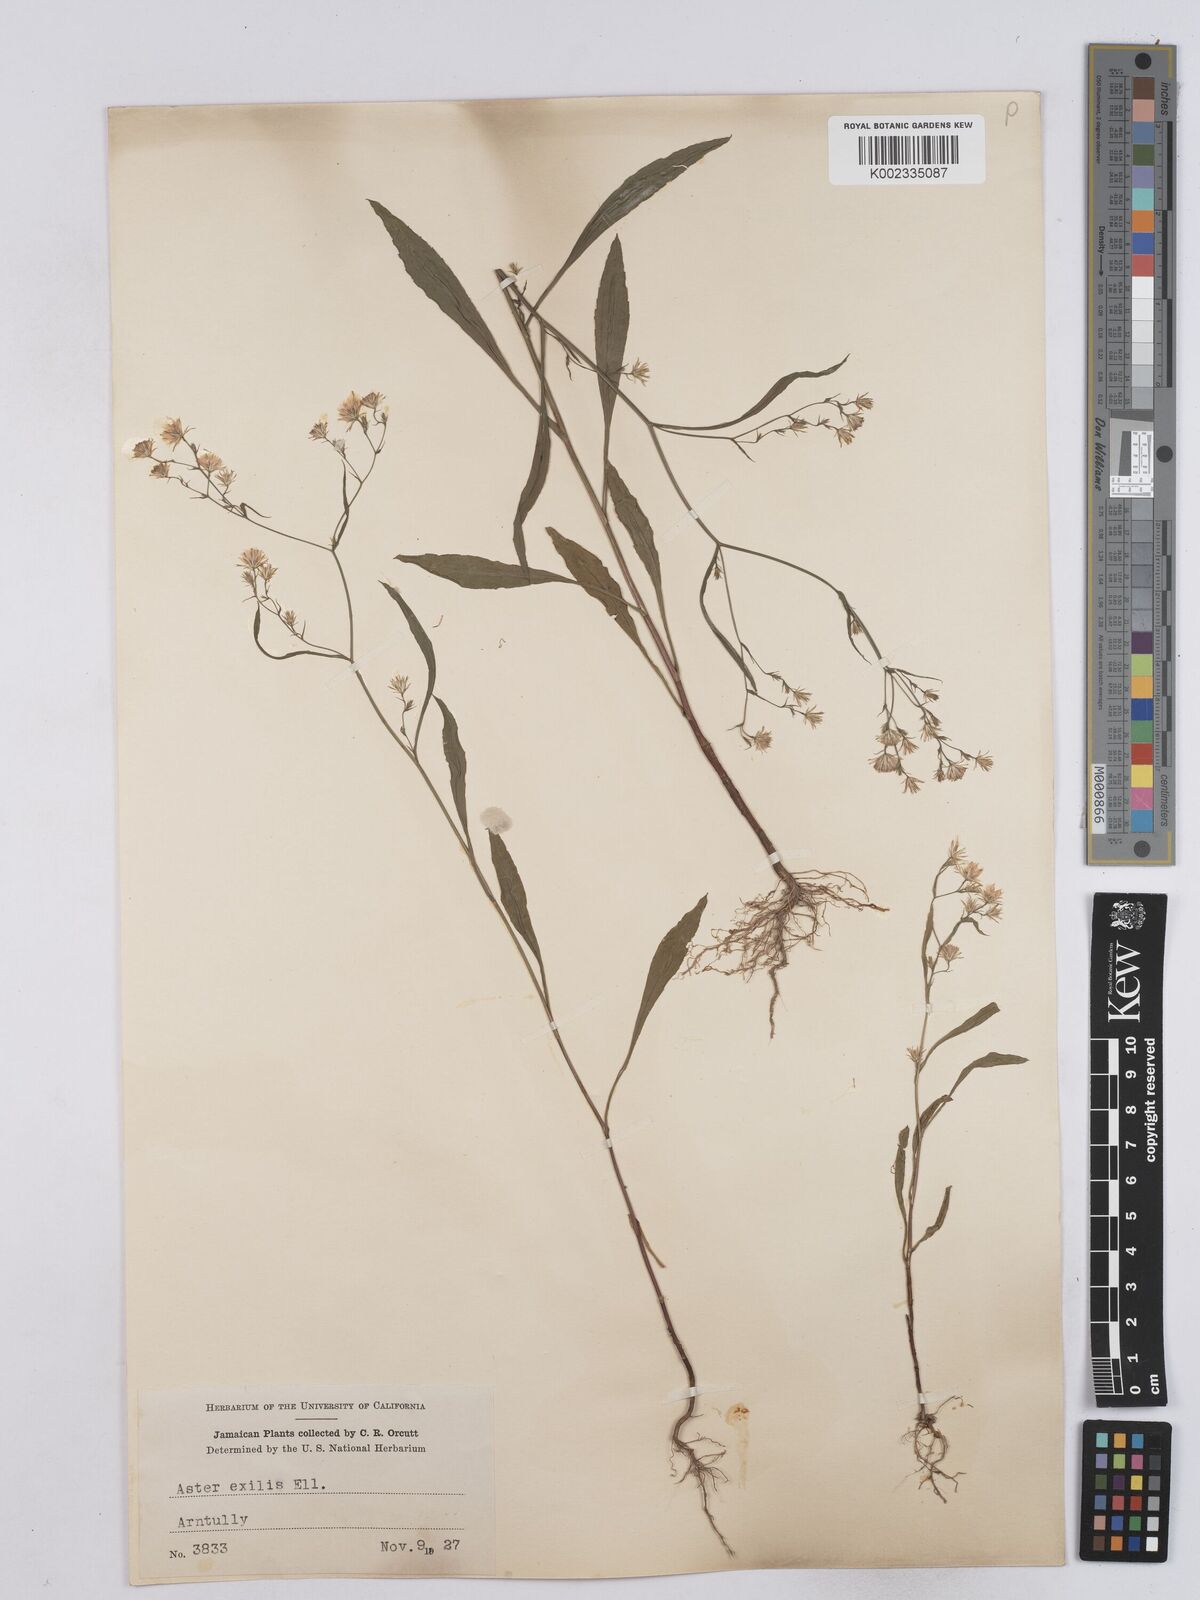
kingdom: Plantae
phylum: Tracheophyta
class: Magnoliopsida
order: Asterales
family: Asteraceae
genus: Symphyotrichum
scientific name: Symphyotrichum expansum
